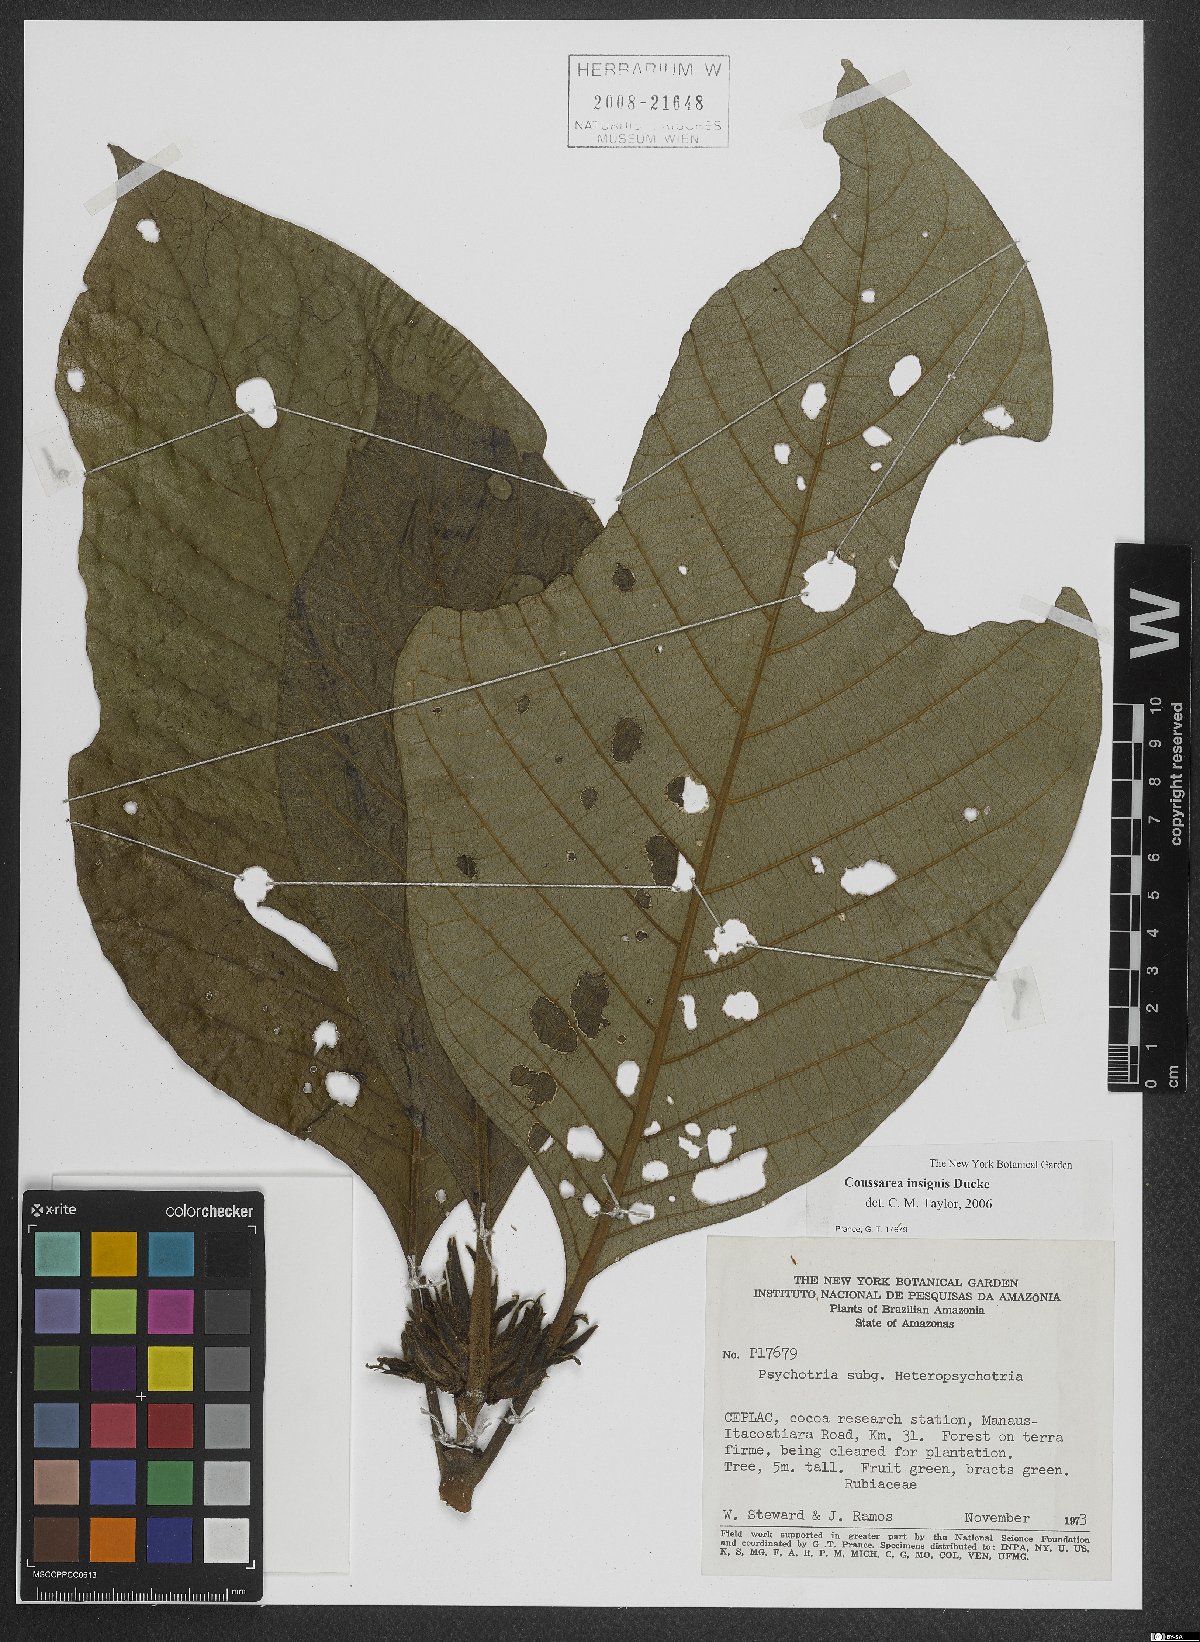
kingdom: Plantae
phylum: Tracheophyta
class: Magnoliopsida
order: Gentianales
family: Rubiaceae
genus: Coussarea
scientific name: Coussarea insignis
